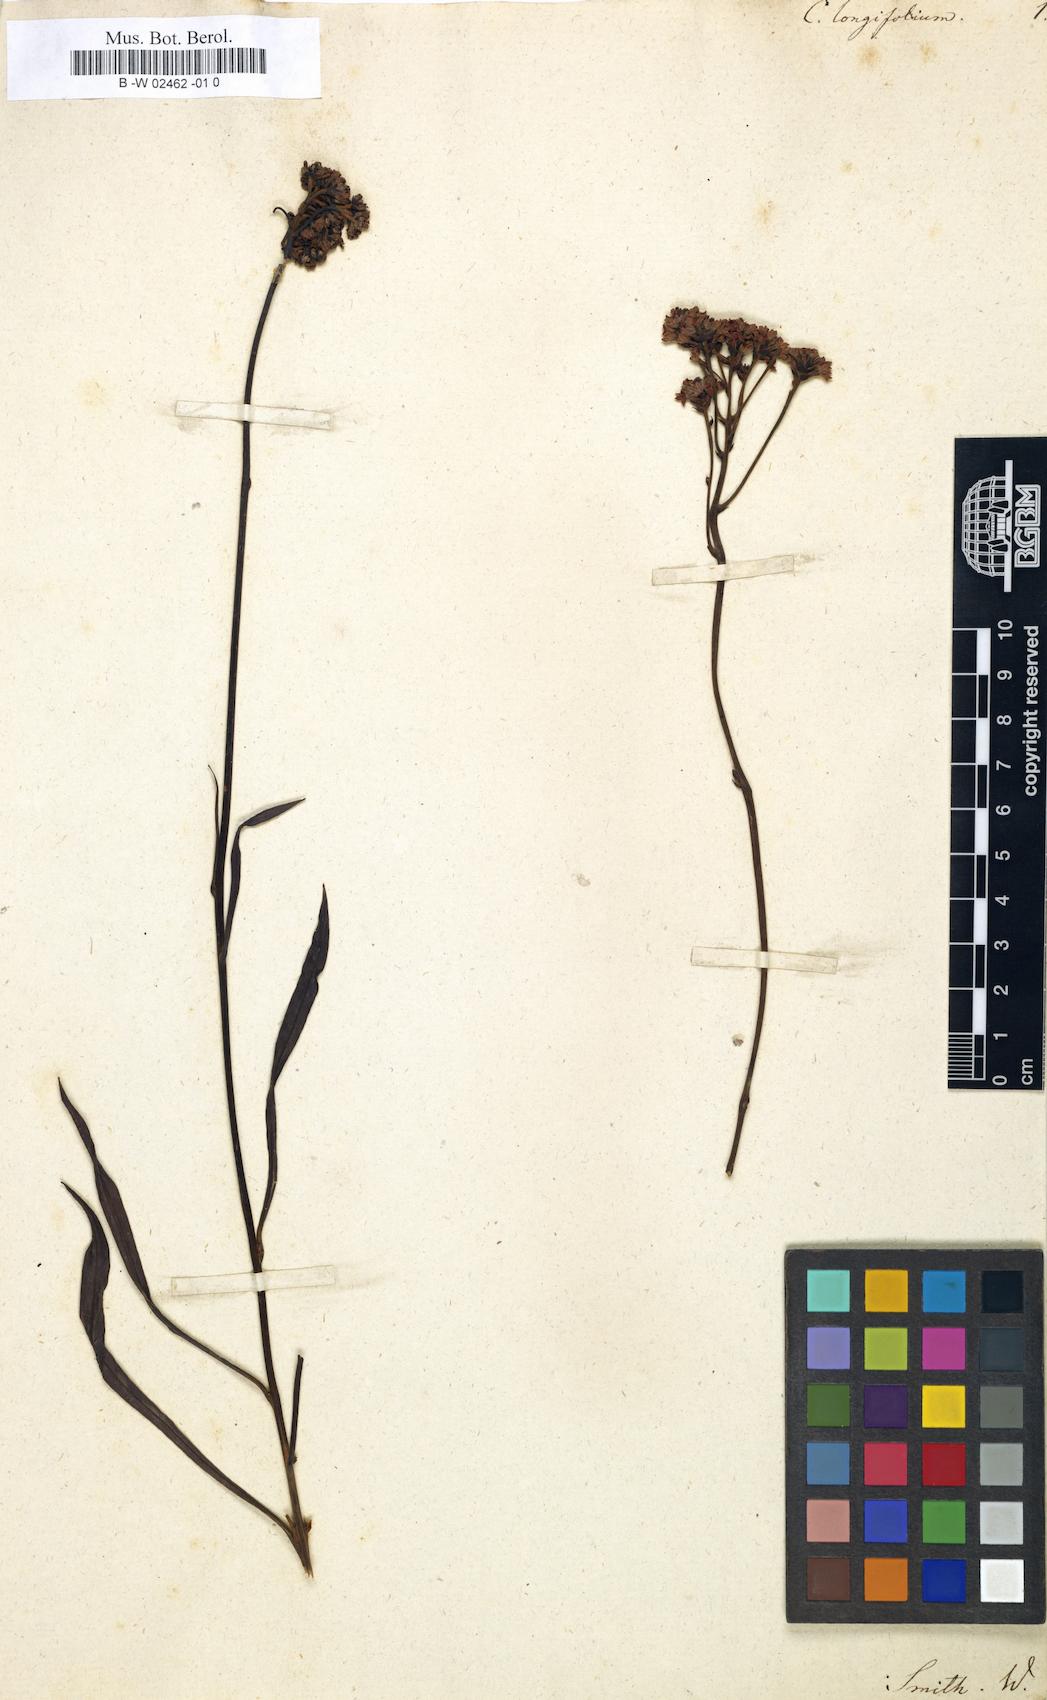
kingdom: Plantae
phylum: Tracheophyta
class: Magnoliopsida
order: Proteales
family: Proteaceae
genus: Conospermum
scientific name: Conospermum longifolium
